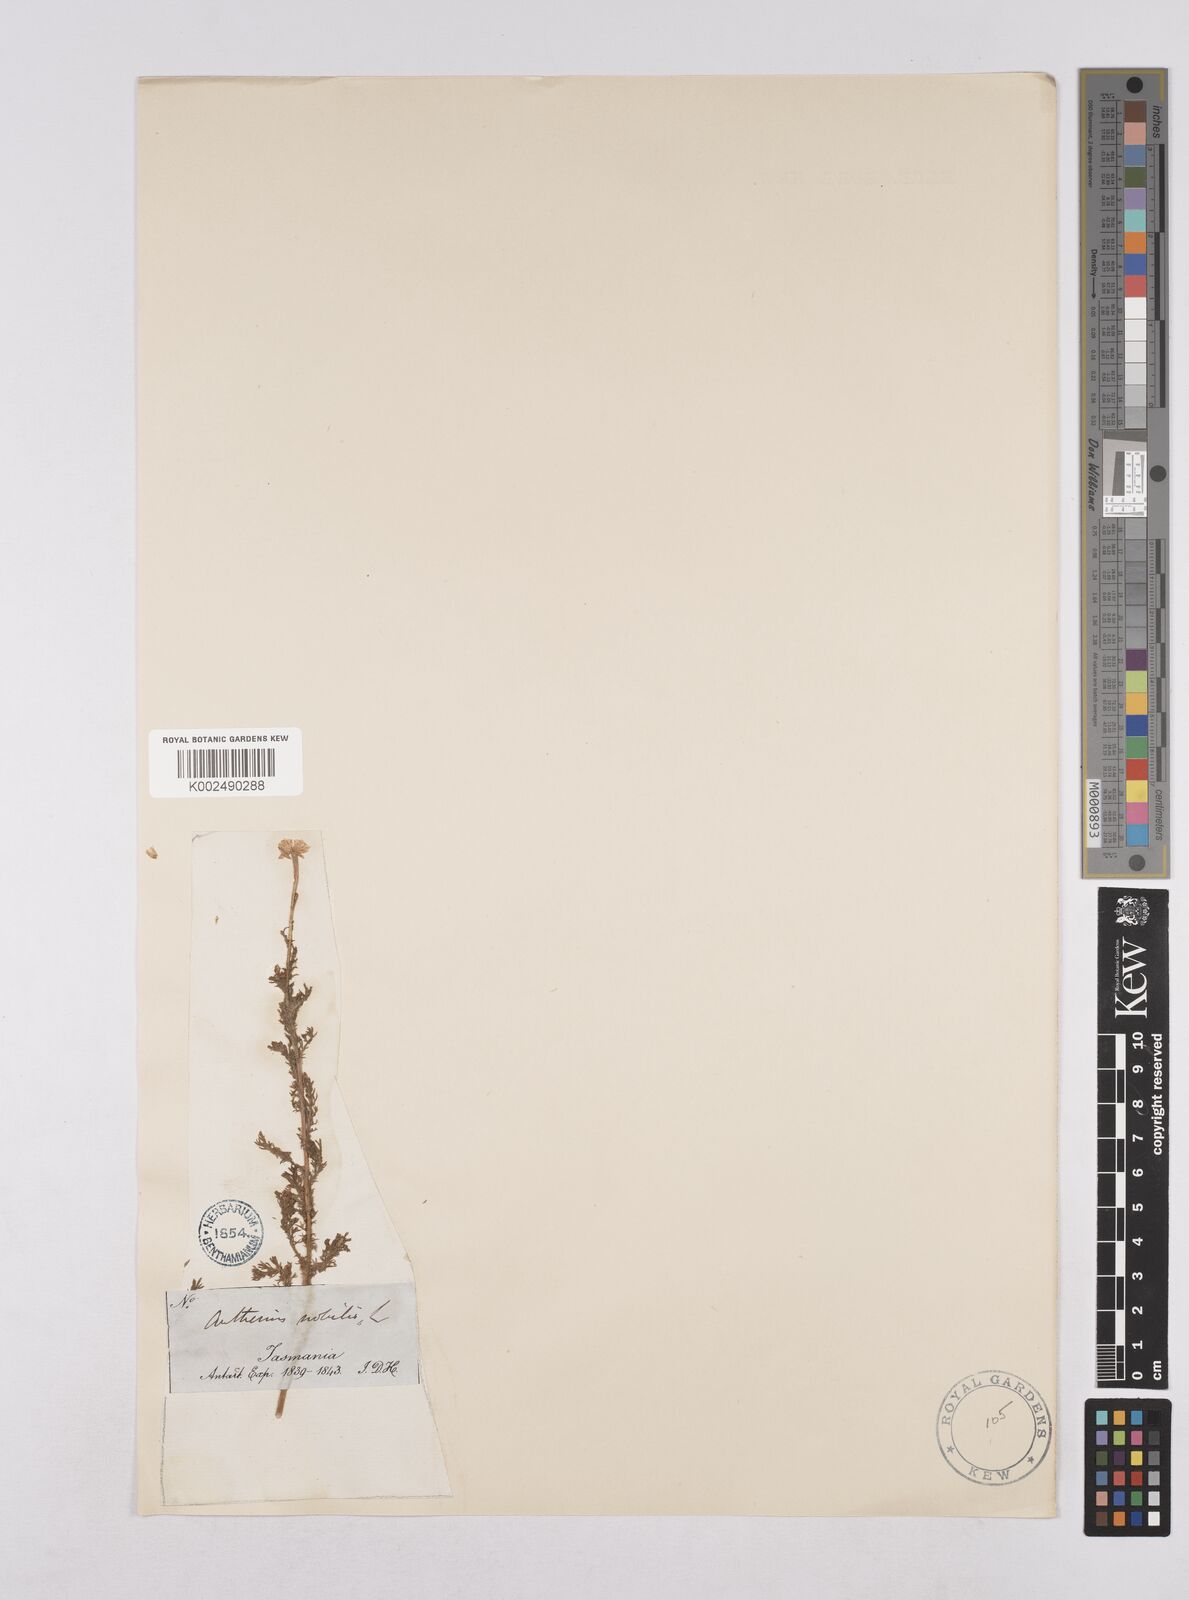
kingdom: Plantae
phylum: Tracheophyta
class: Magnoliopsida
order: Asterales
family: Asteraceae
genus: Chamaemelum
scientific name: Chamaemelum nobile
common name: Roman chamomile
